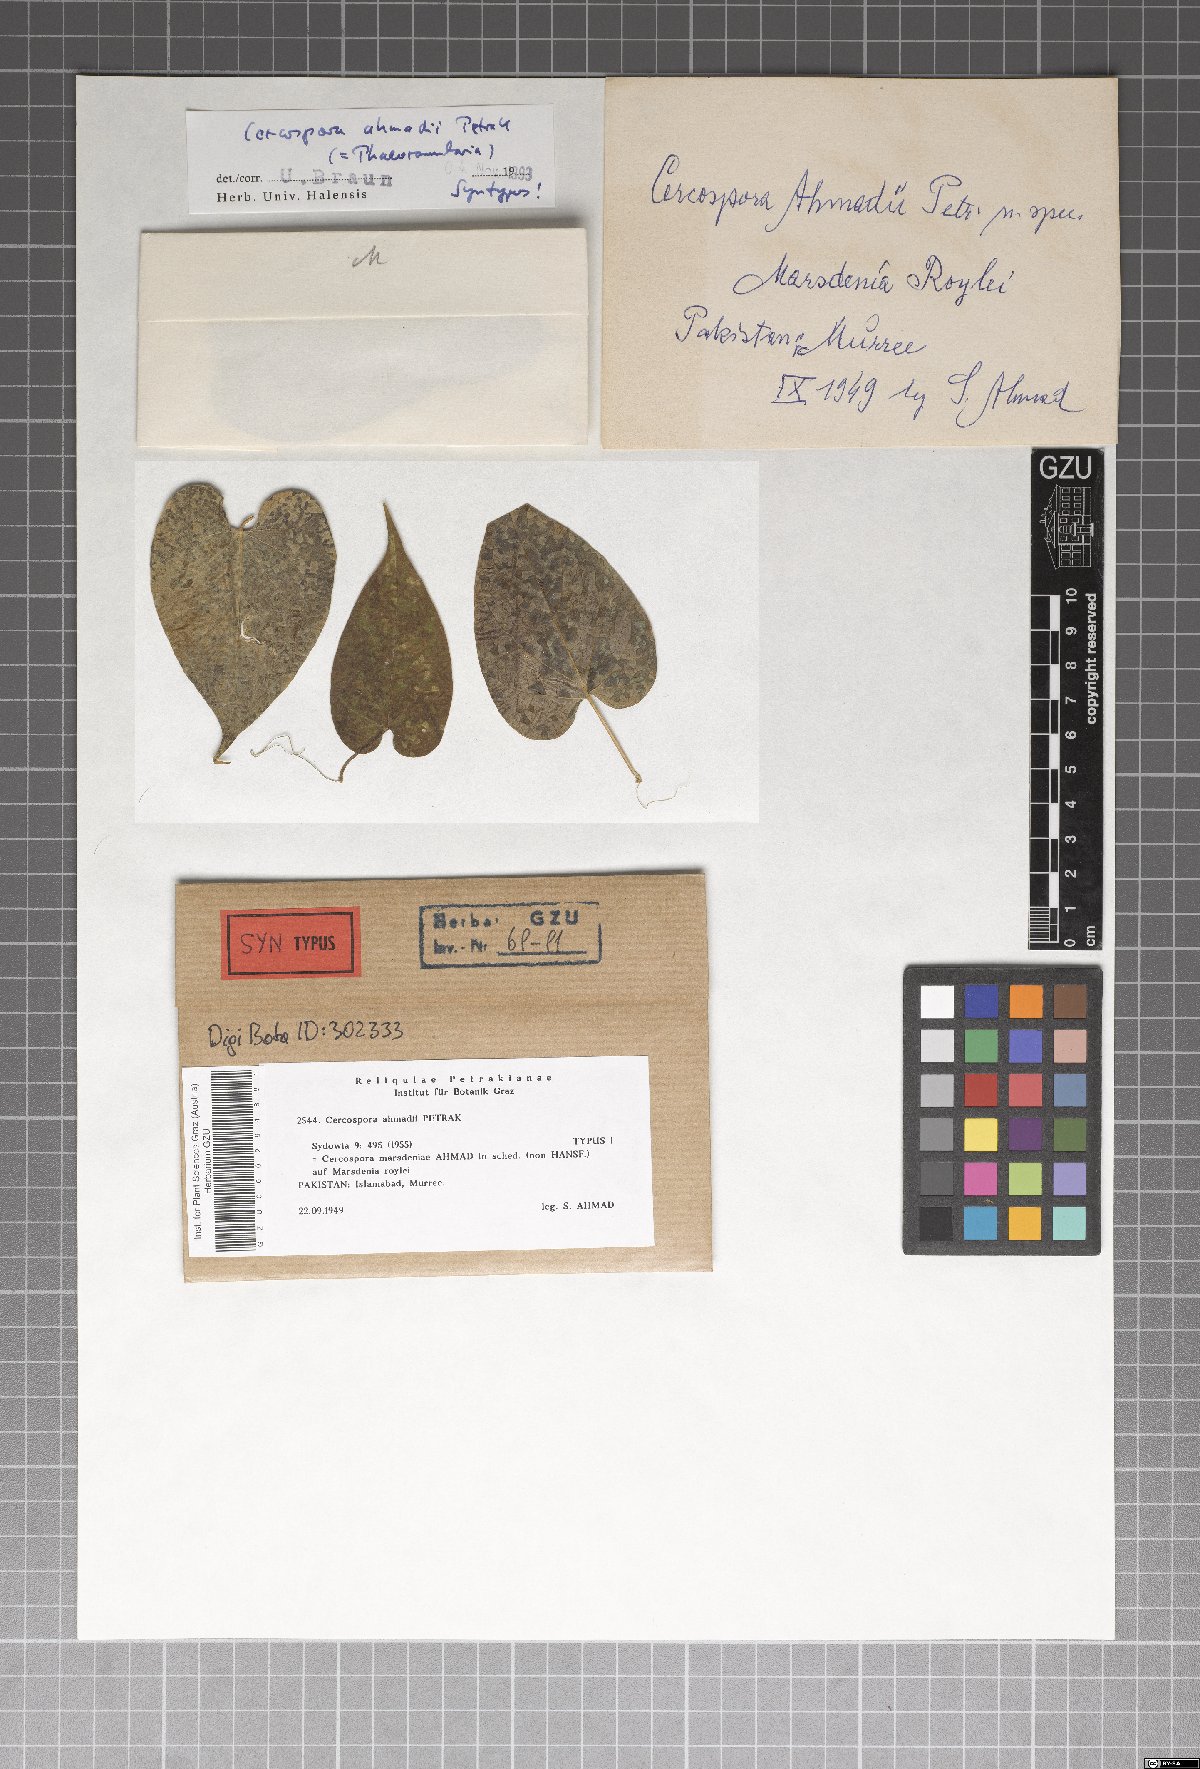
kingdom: Fungi
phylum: Ascomycota
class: Dothideomycetes
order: Mycosphaerellales
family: Mycosphaerellaceae
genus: Passalora
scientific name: Passalora ahmadii
